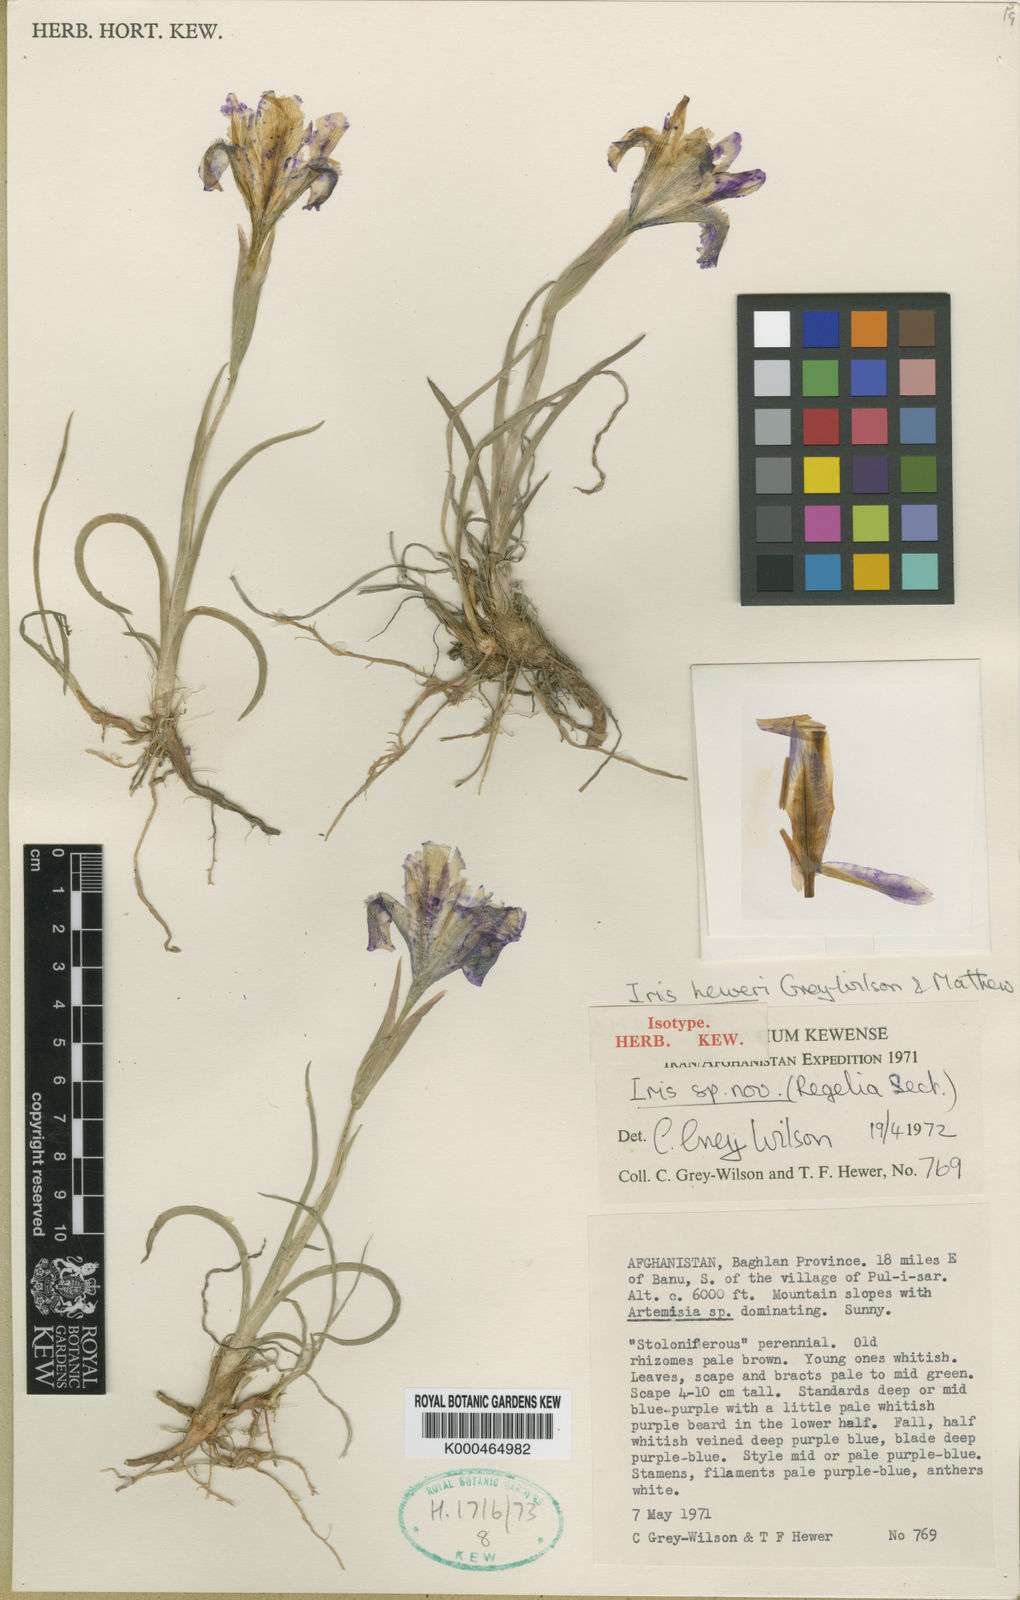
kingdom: Plantae
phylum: Tracheophyta
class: Liliopsida
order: Asparagales
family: Iridaceae
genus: Iris
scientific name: Iris heweri
